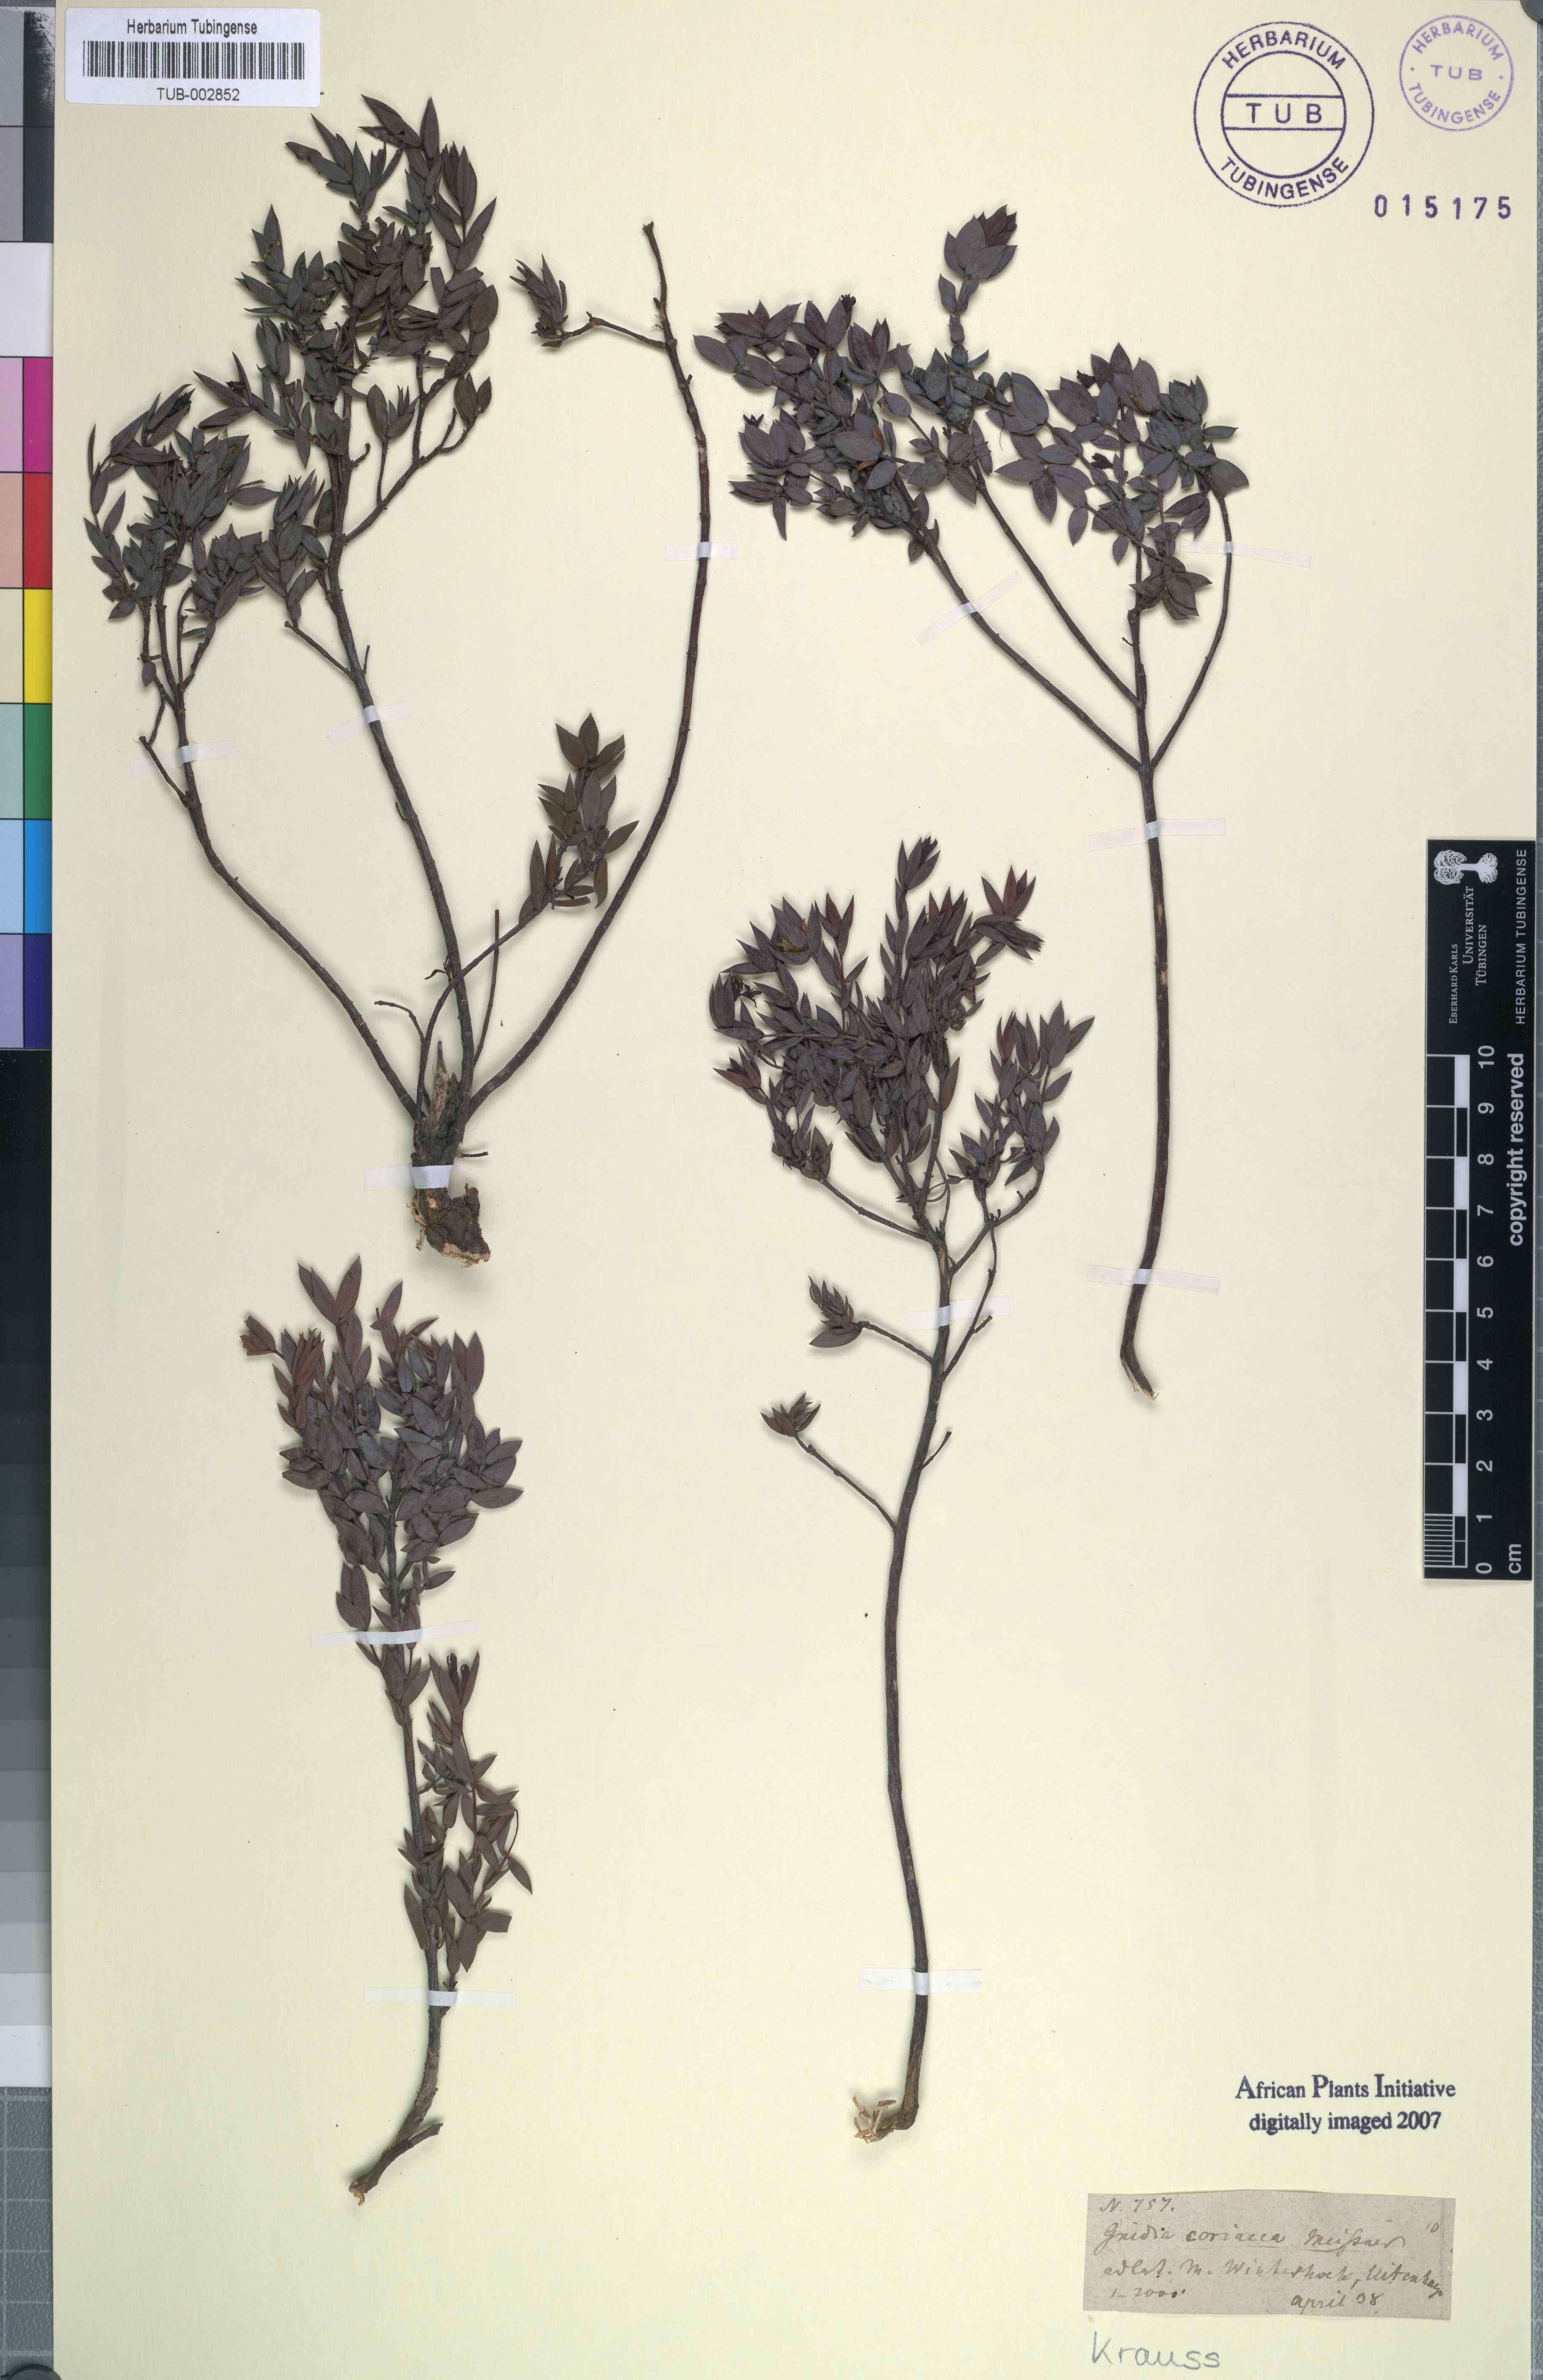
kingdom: Plantae
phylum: Tracheophyta
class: Magnoliopsida
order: Malvales
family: Thymelaeaceae
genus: Gnidia
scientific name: Gnidia coriacea
